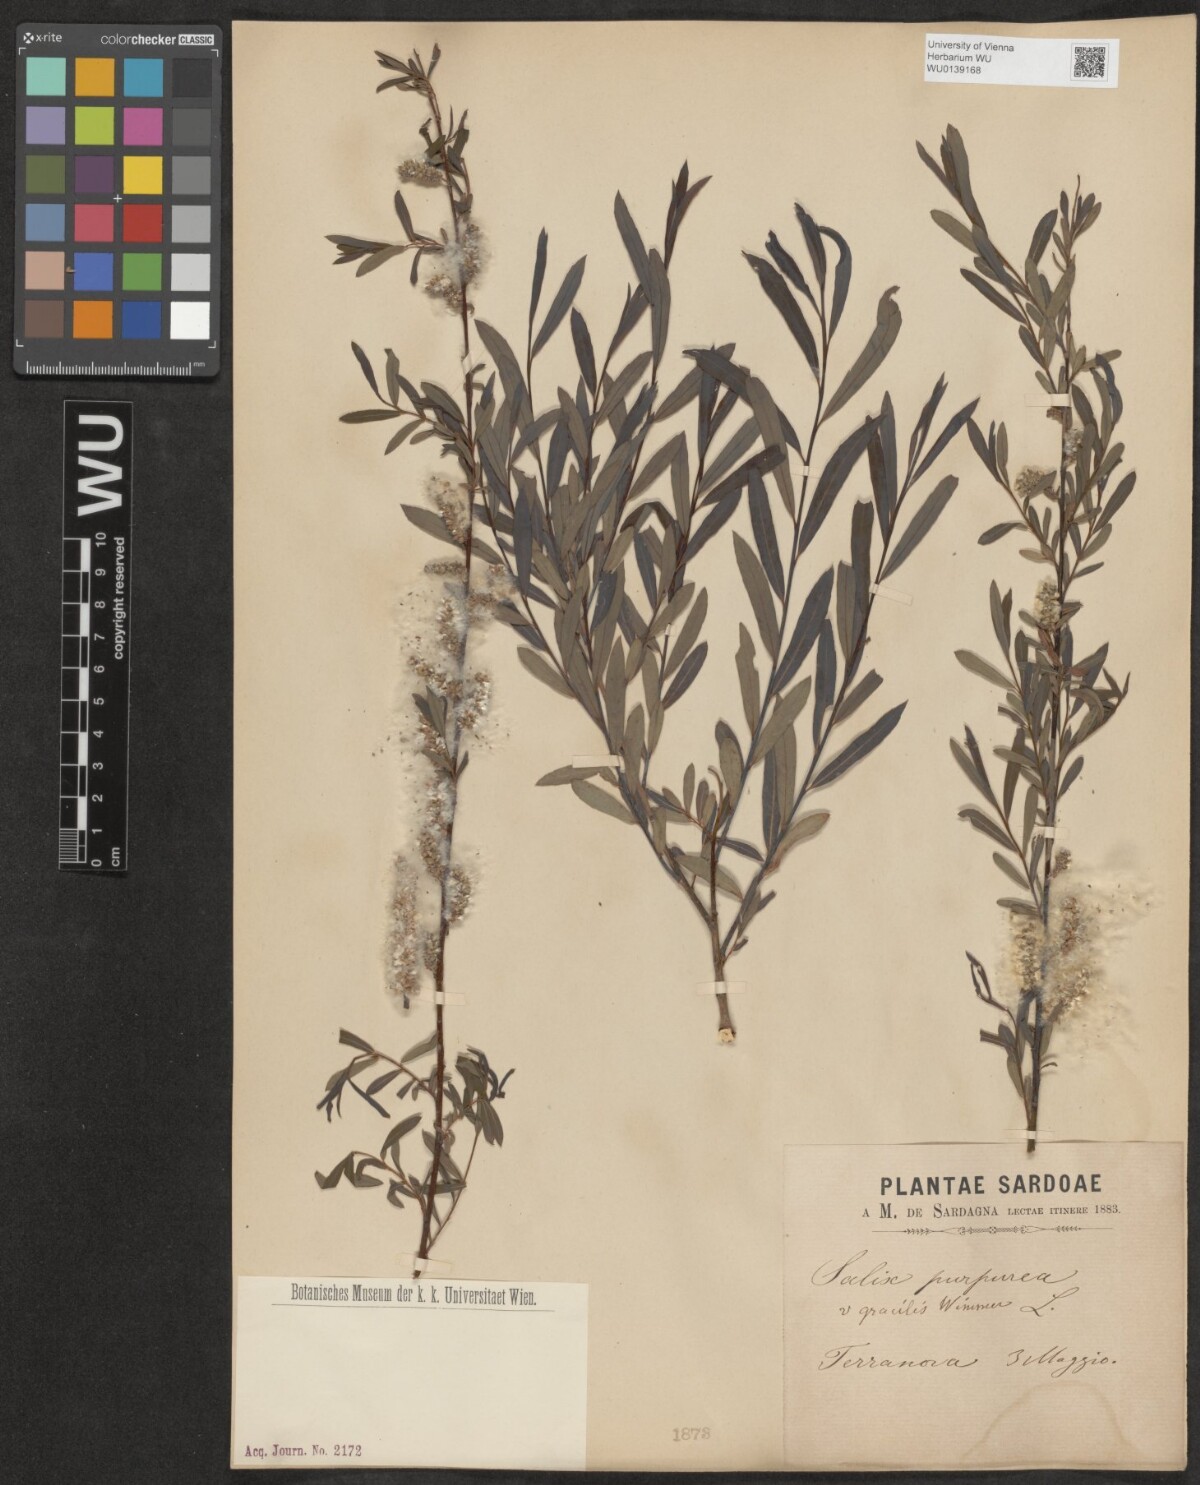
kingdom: Plantae
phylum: Tracheophyta
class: Magnoliopsida
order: Malpighiales
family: Salicaceae
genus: Salix
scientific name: Salix purpurea
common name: Purple willow
